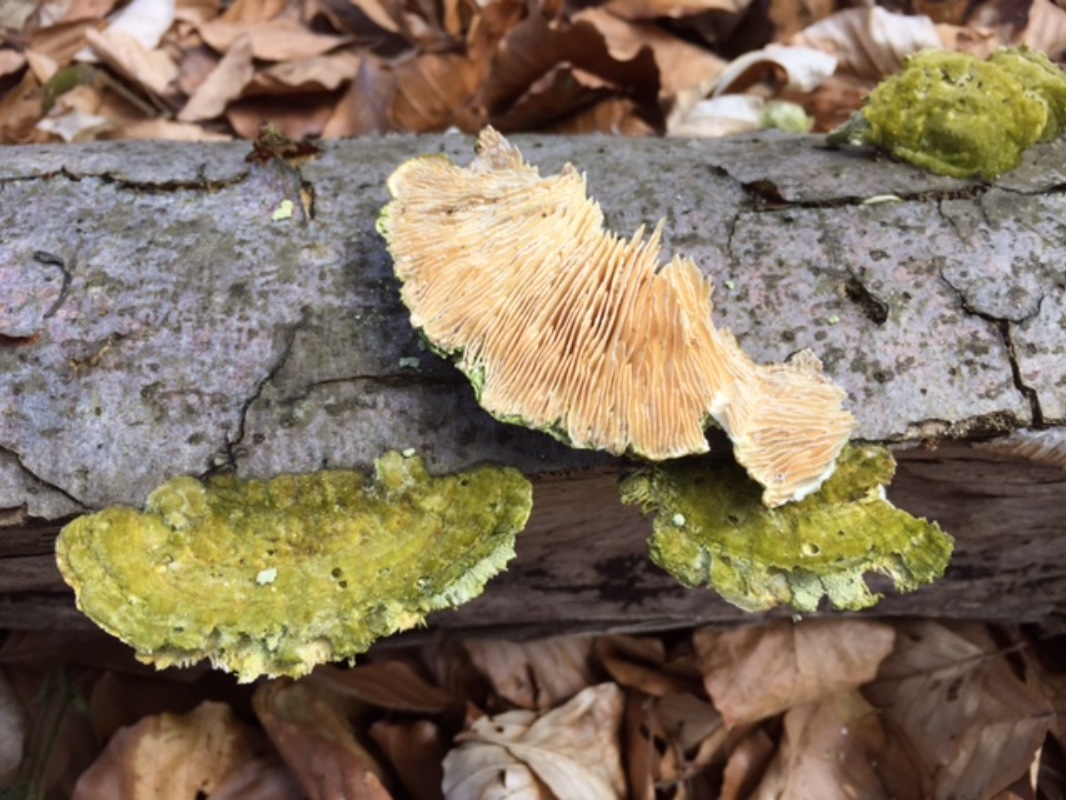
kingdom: Fungi
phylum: Basidiomycota
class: Agaricomycetes
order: Polyporales
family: Polyporaceae
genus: Lenzites
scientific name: Lenzites betulinus
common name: birke-læderporesvamp
